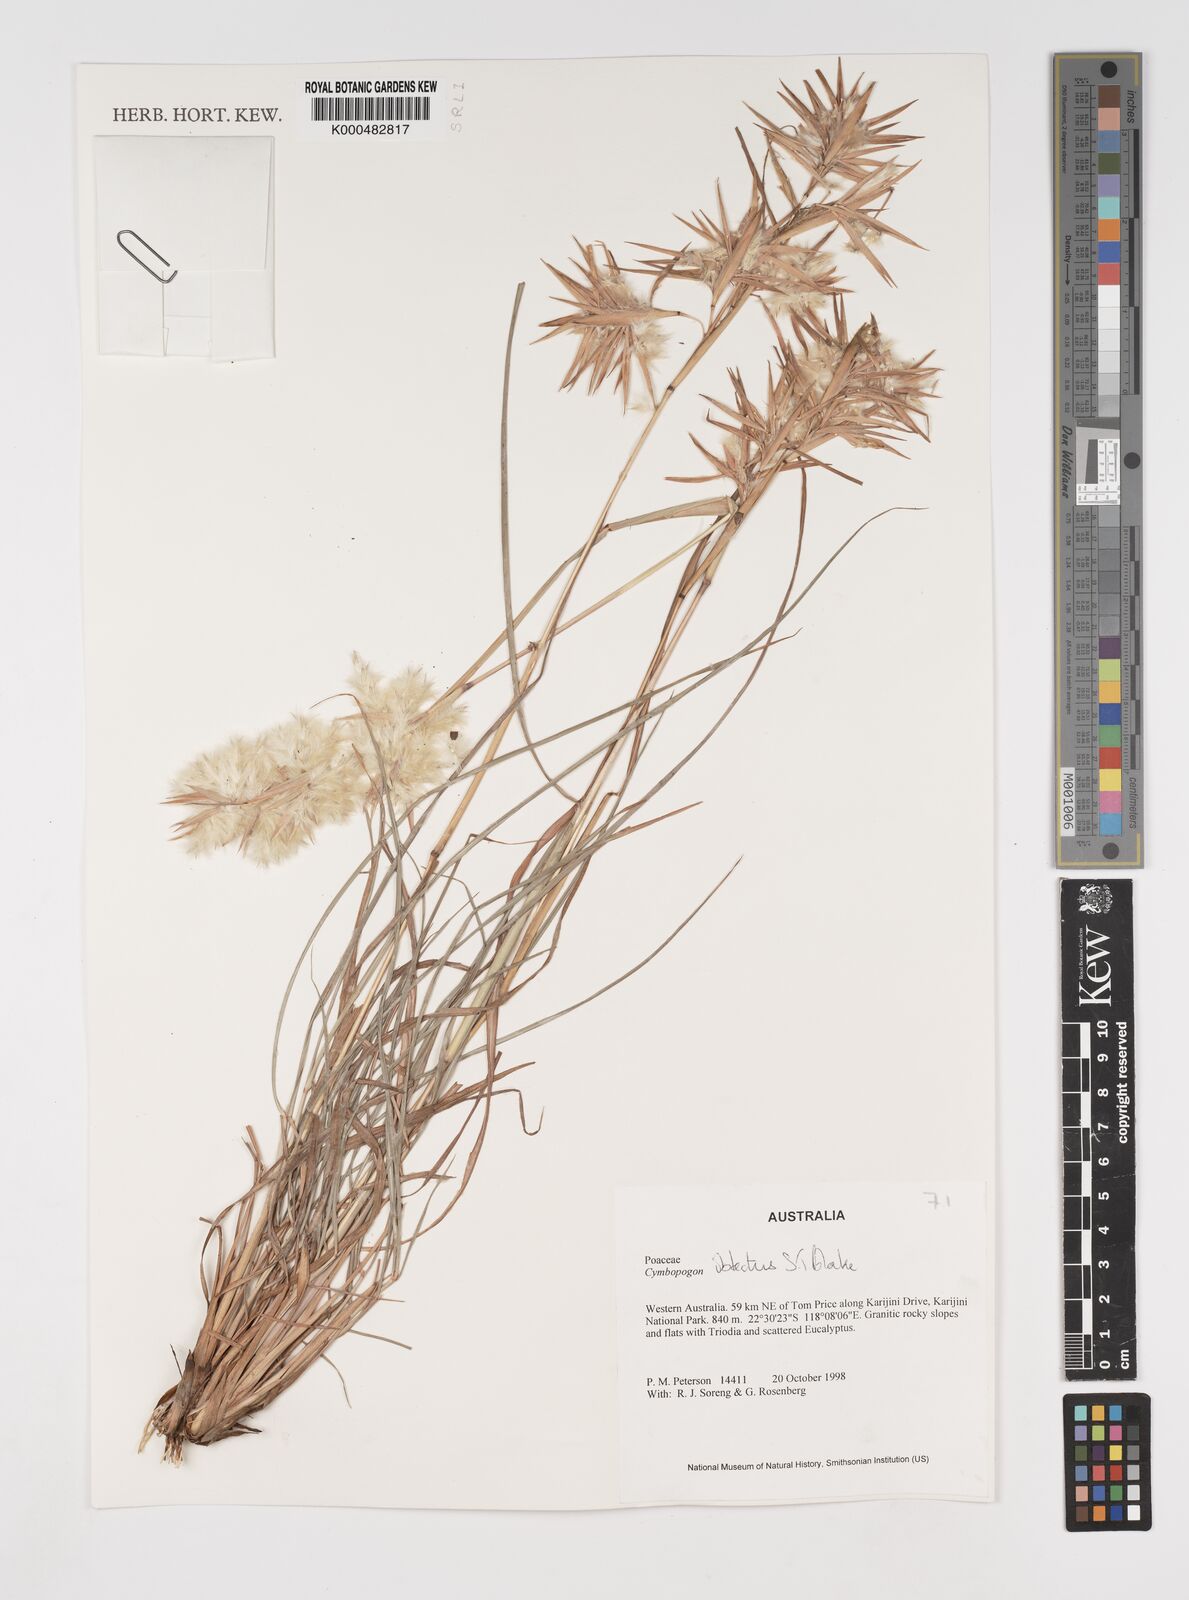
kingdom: Plantae
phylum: Tracheophyta
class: Liliopsida
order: Poales
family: Poaceae
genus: Cymbopogon
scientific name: Cymbopogon obtectus
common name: Silky heads
